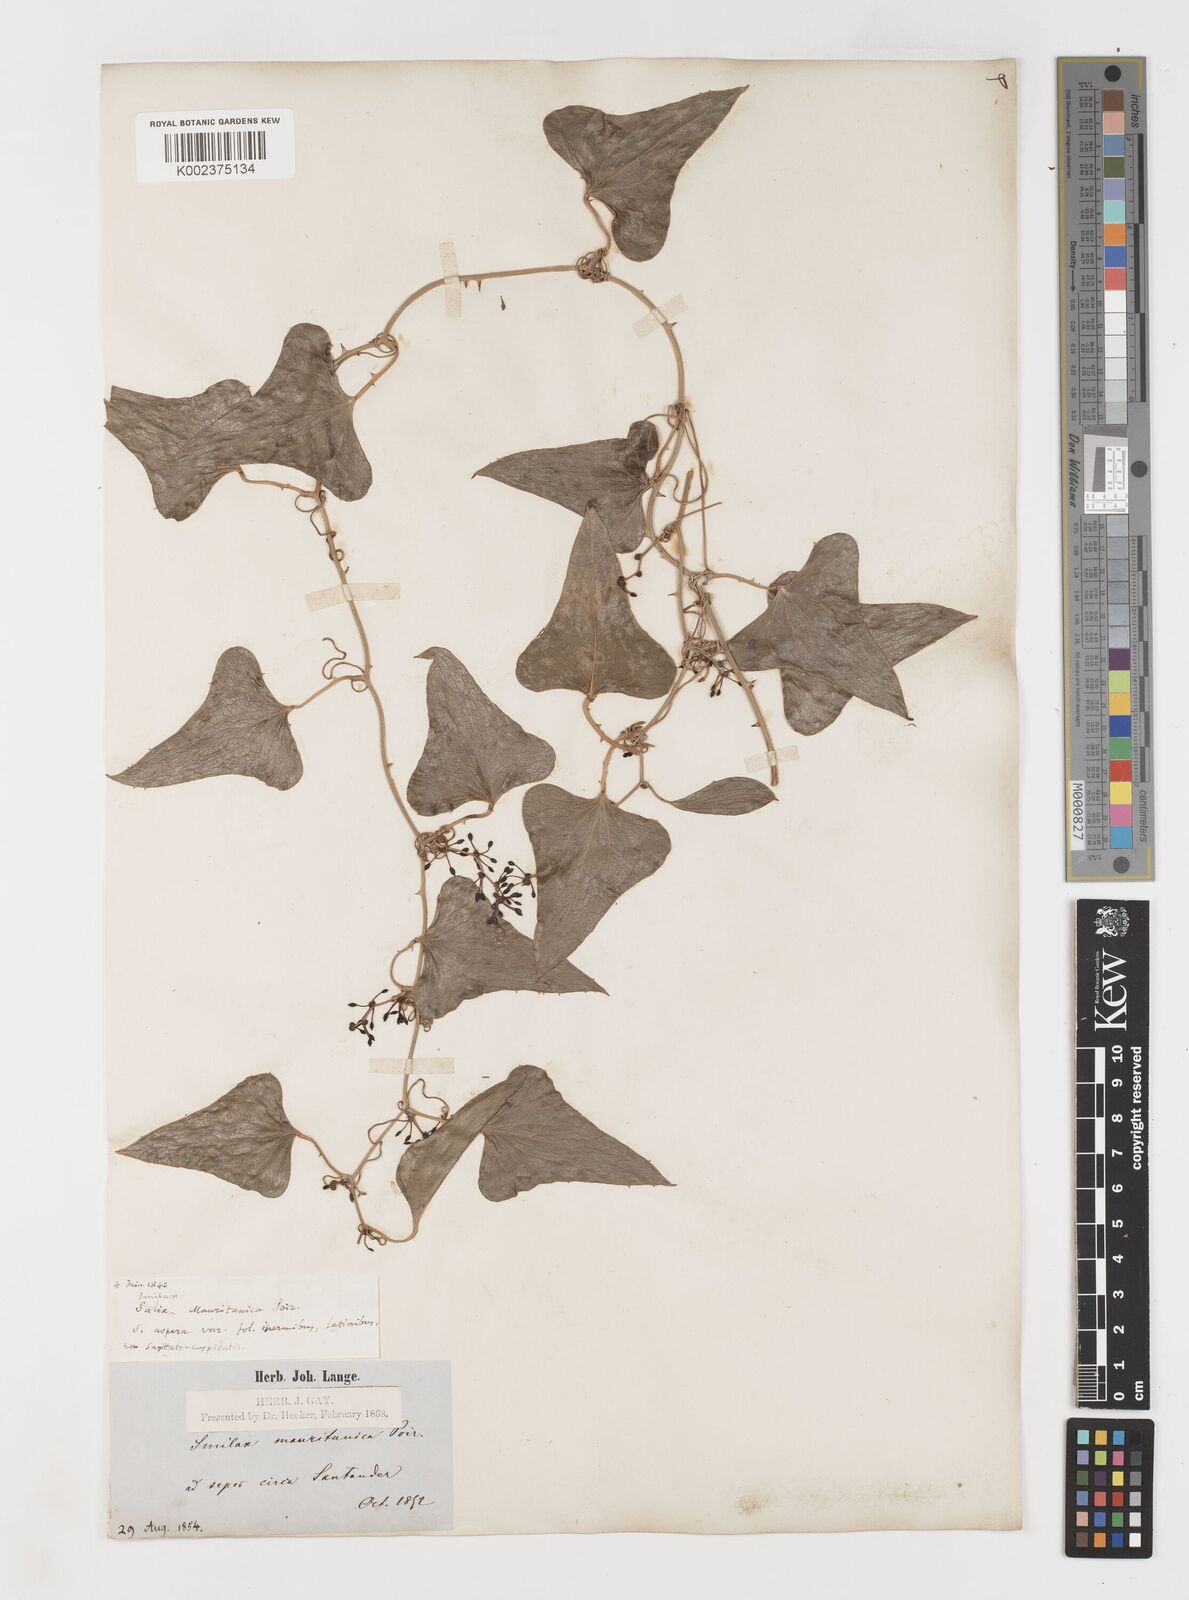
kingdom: Plantae
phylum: Tracheophyta
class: Liliopsida
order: Liliales
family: Smilacaceae
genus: Smilax
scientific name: Smilax aspera
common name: Common smilax
